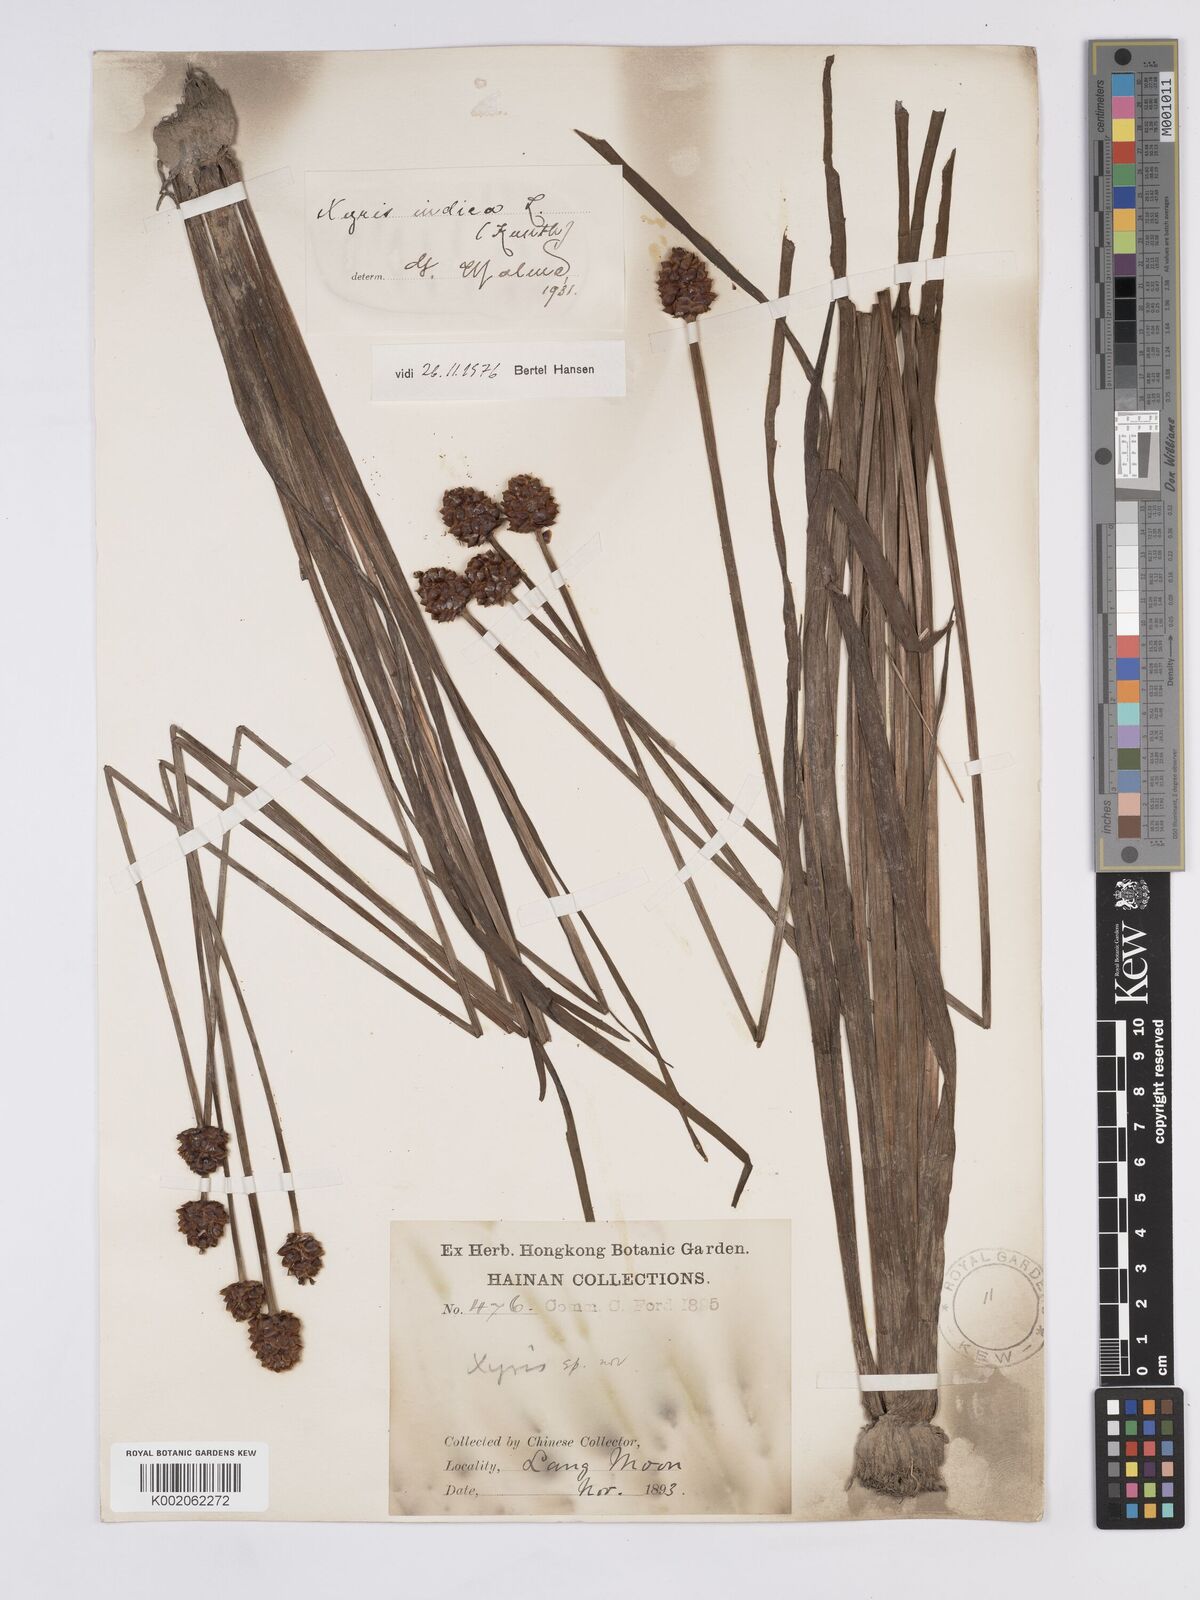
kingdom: Plantae
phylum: Tracheophyta
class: Liliopsida
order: Poales
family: Xyridaceae
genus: Xyris
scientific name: Xyris indica
